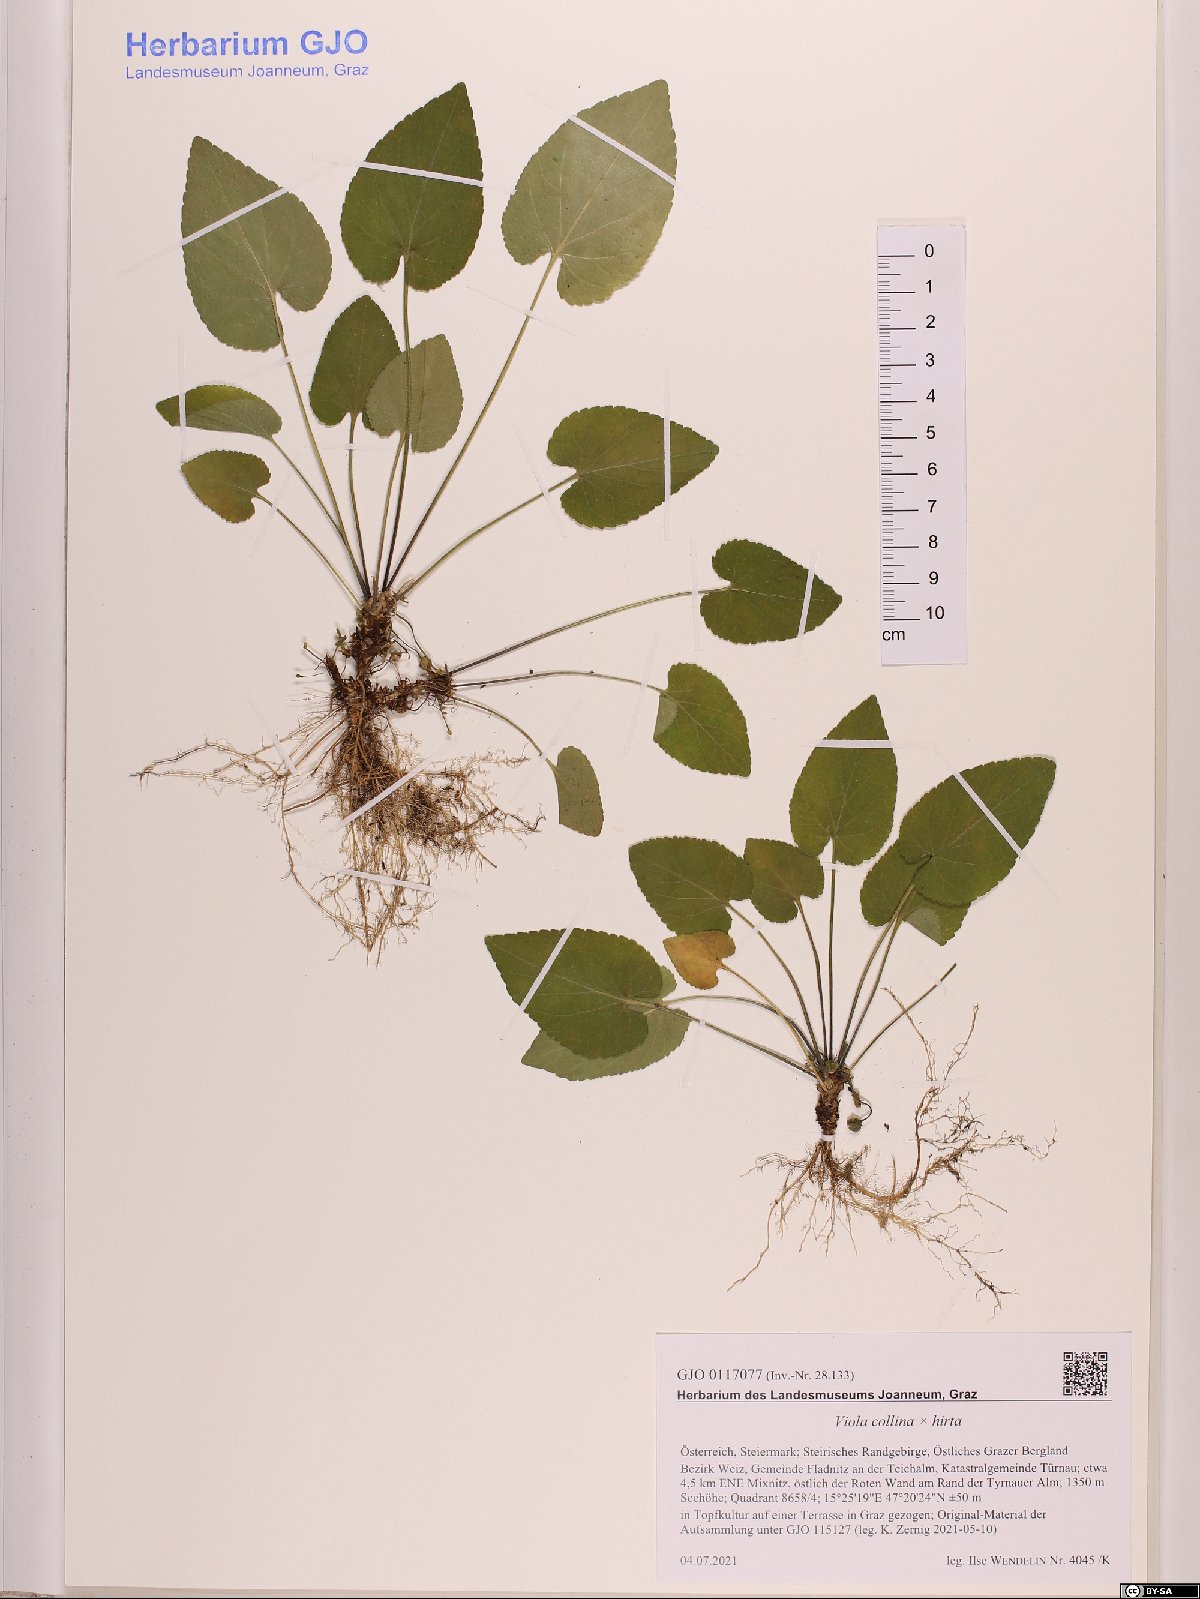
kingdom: Plantae
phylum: Tracheophyta
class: Magnoliopsida
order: Malpighiales
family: Violaceae
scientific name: Violaceae
